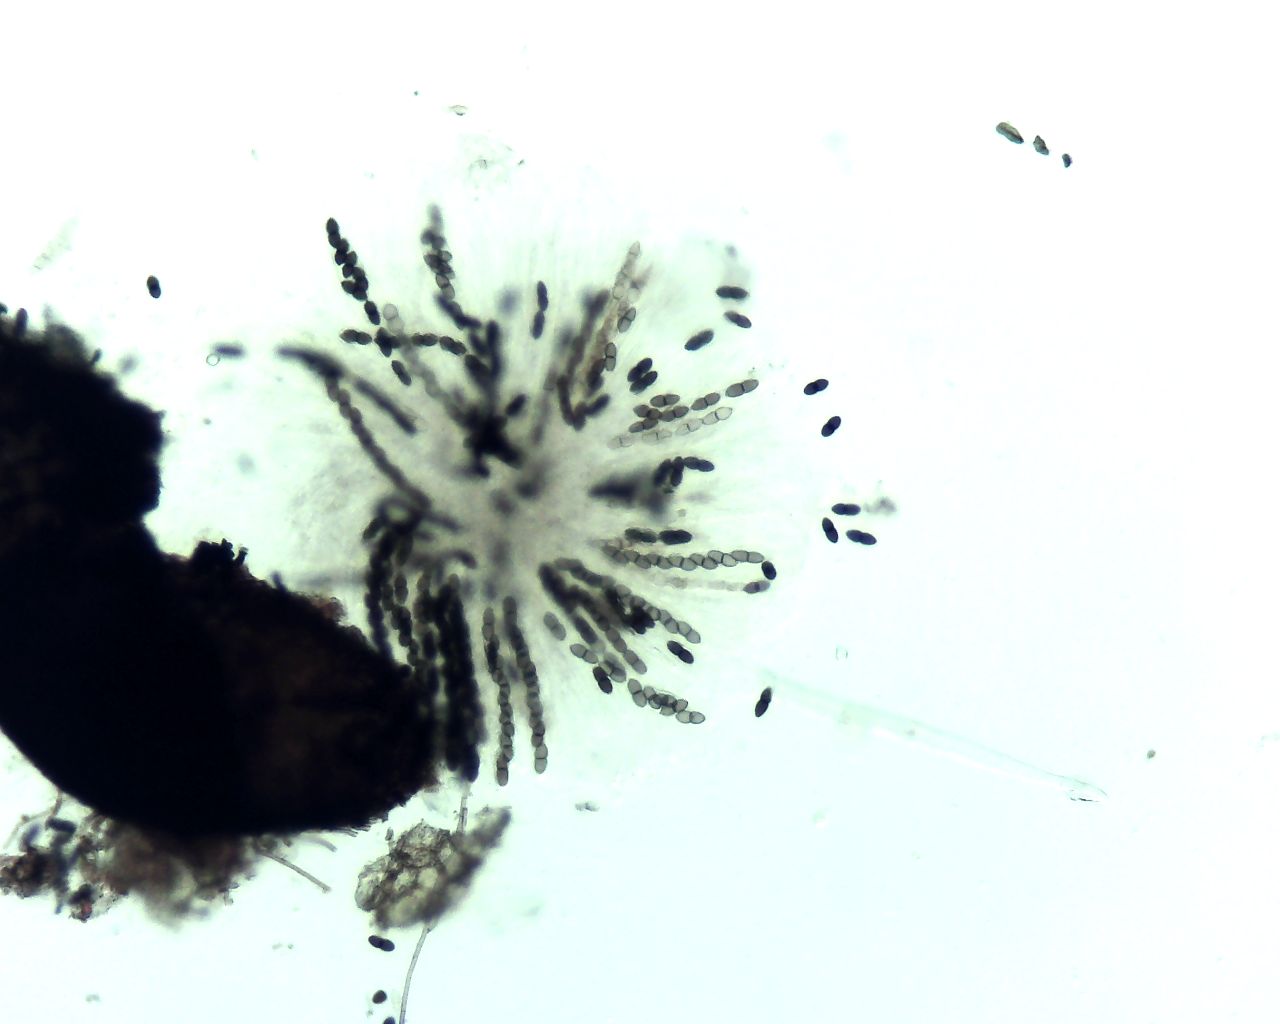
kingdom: Fungi
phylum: Ascomycota
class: Dothideomycetes
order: Phaeotrichales
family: Phaeotrichaceae
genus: Trichodelitschia
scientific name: Trichodelitschia bisporula
